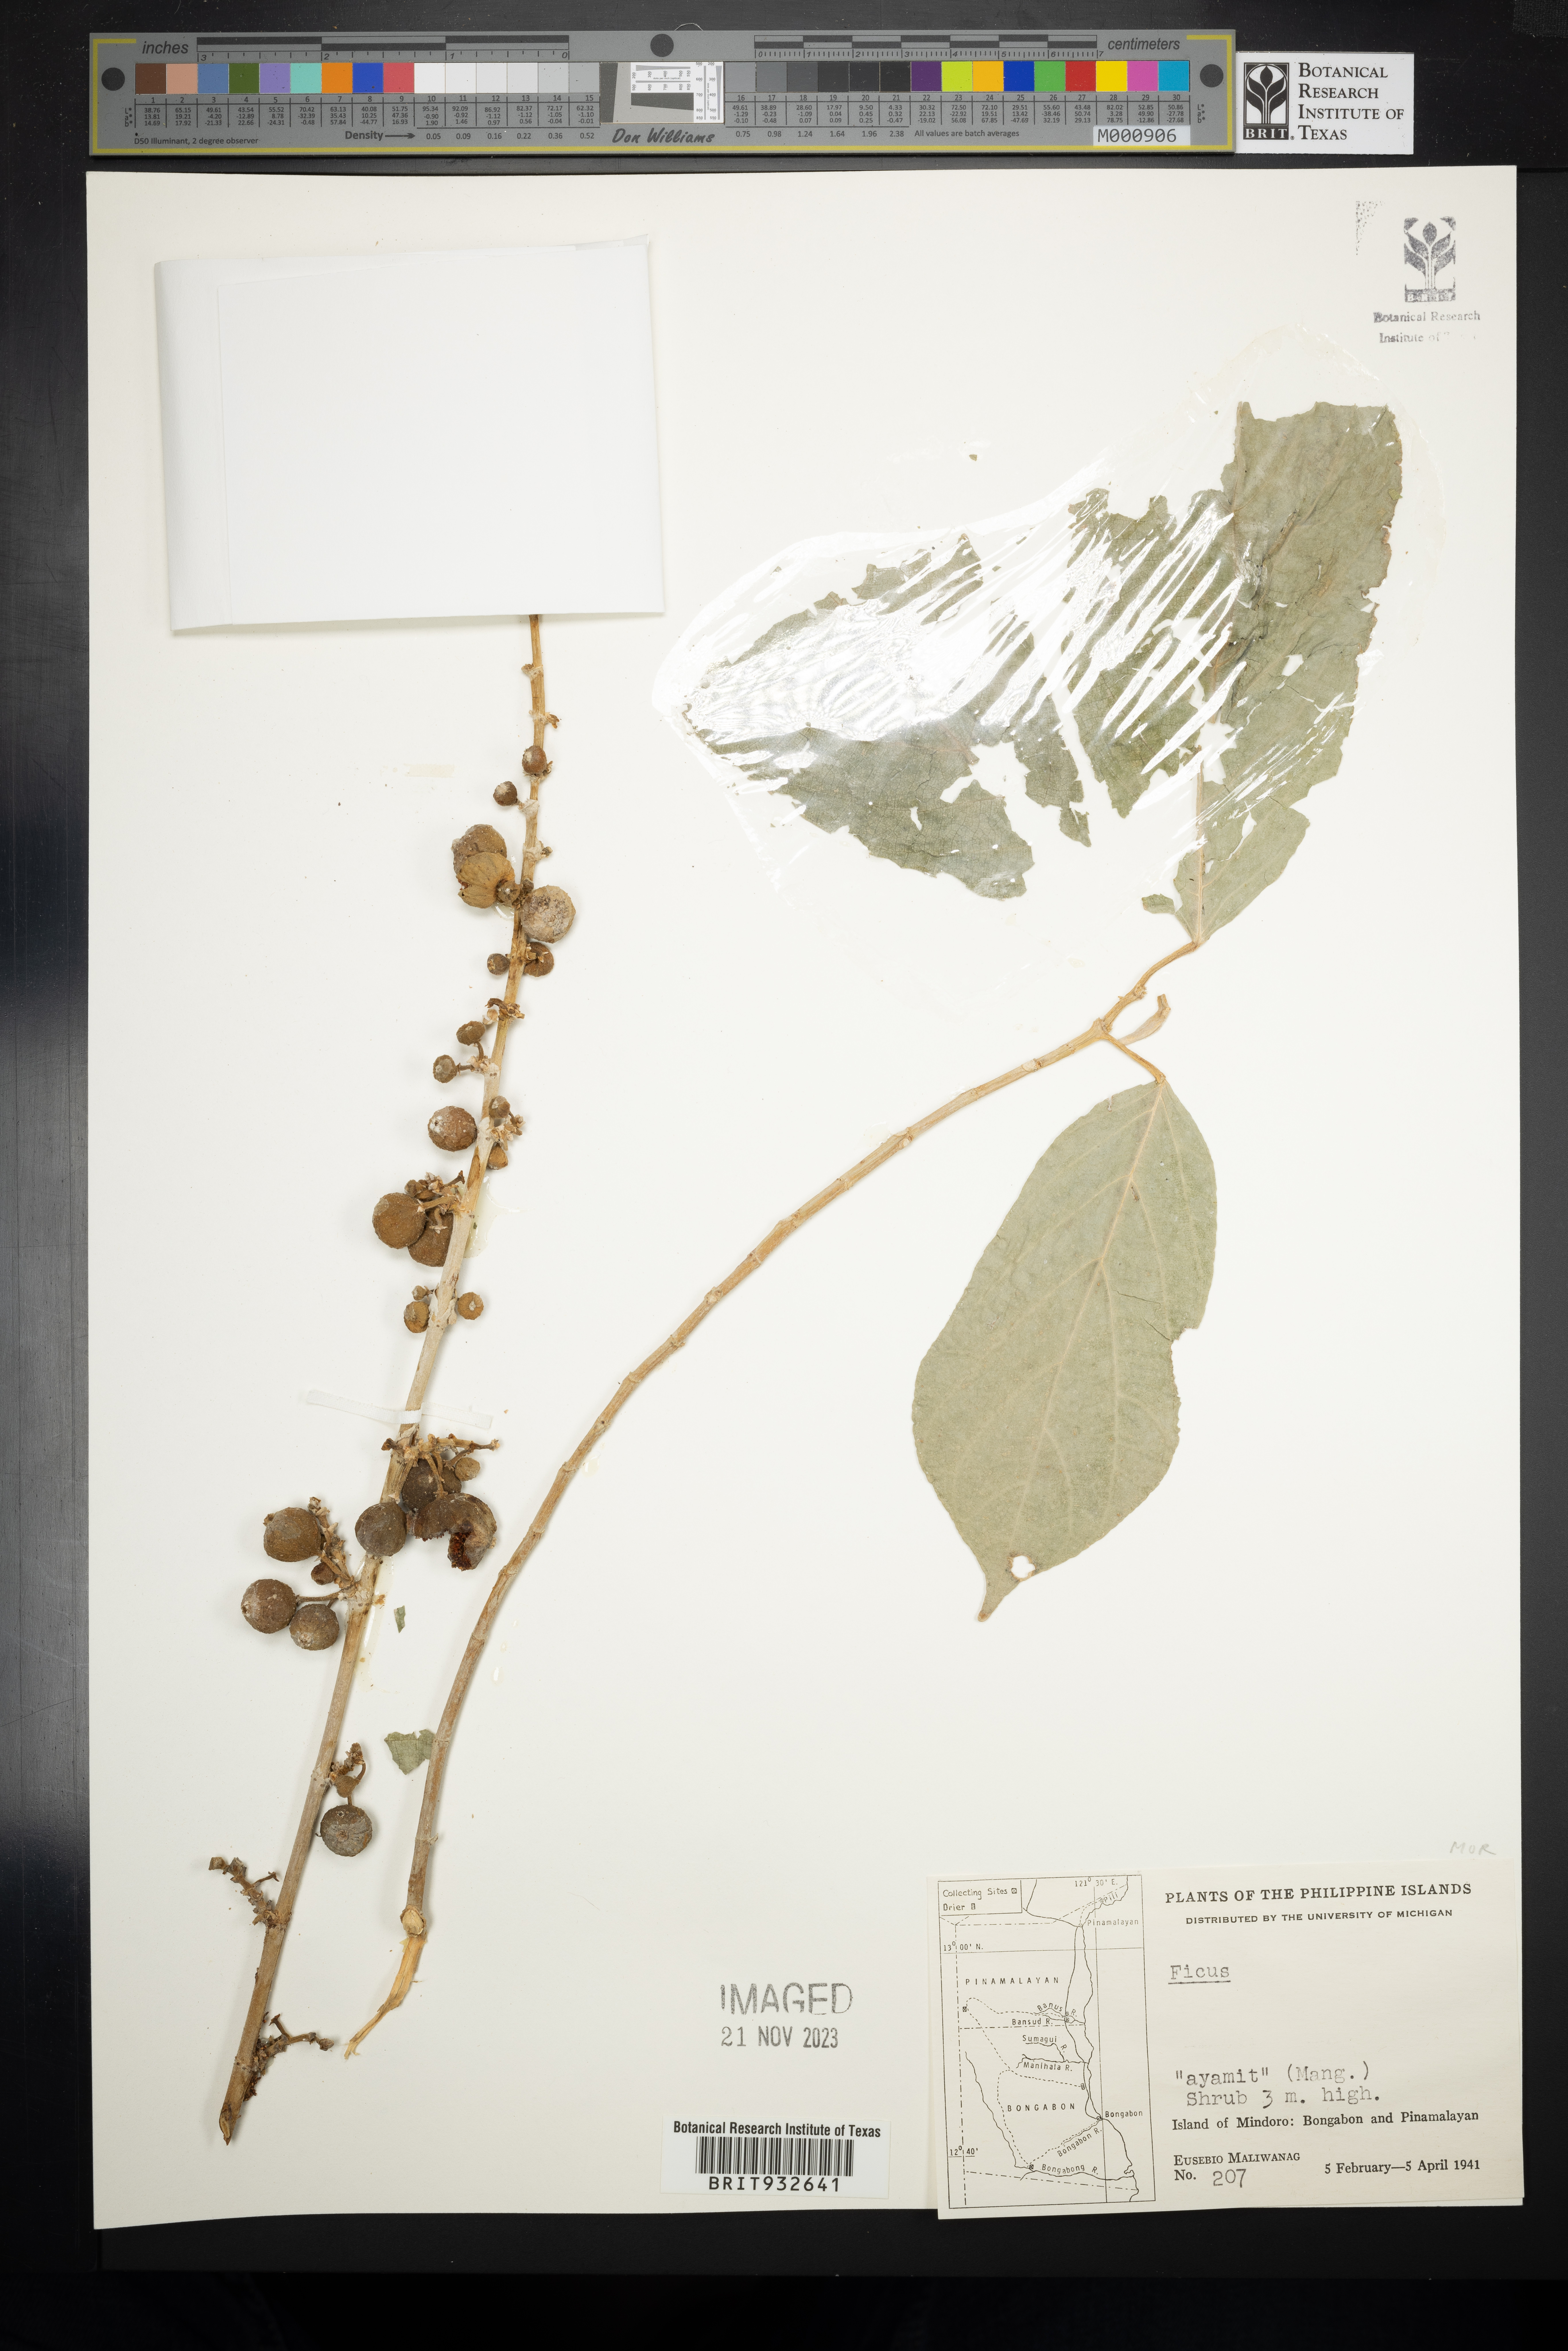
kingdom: Plantae
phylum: Tracheophyta
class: Magnoliopsida
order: Rosales
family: Moraceae
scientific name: Moraceae
